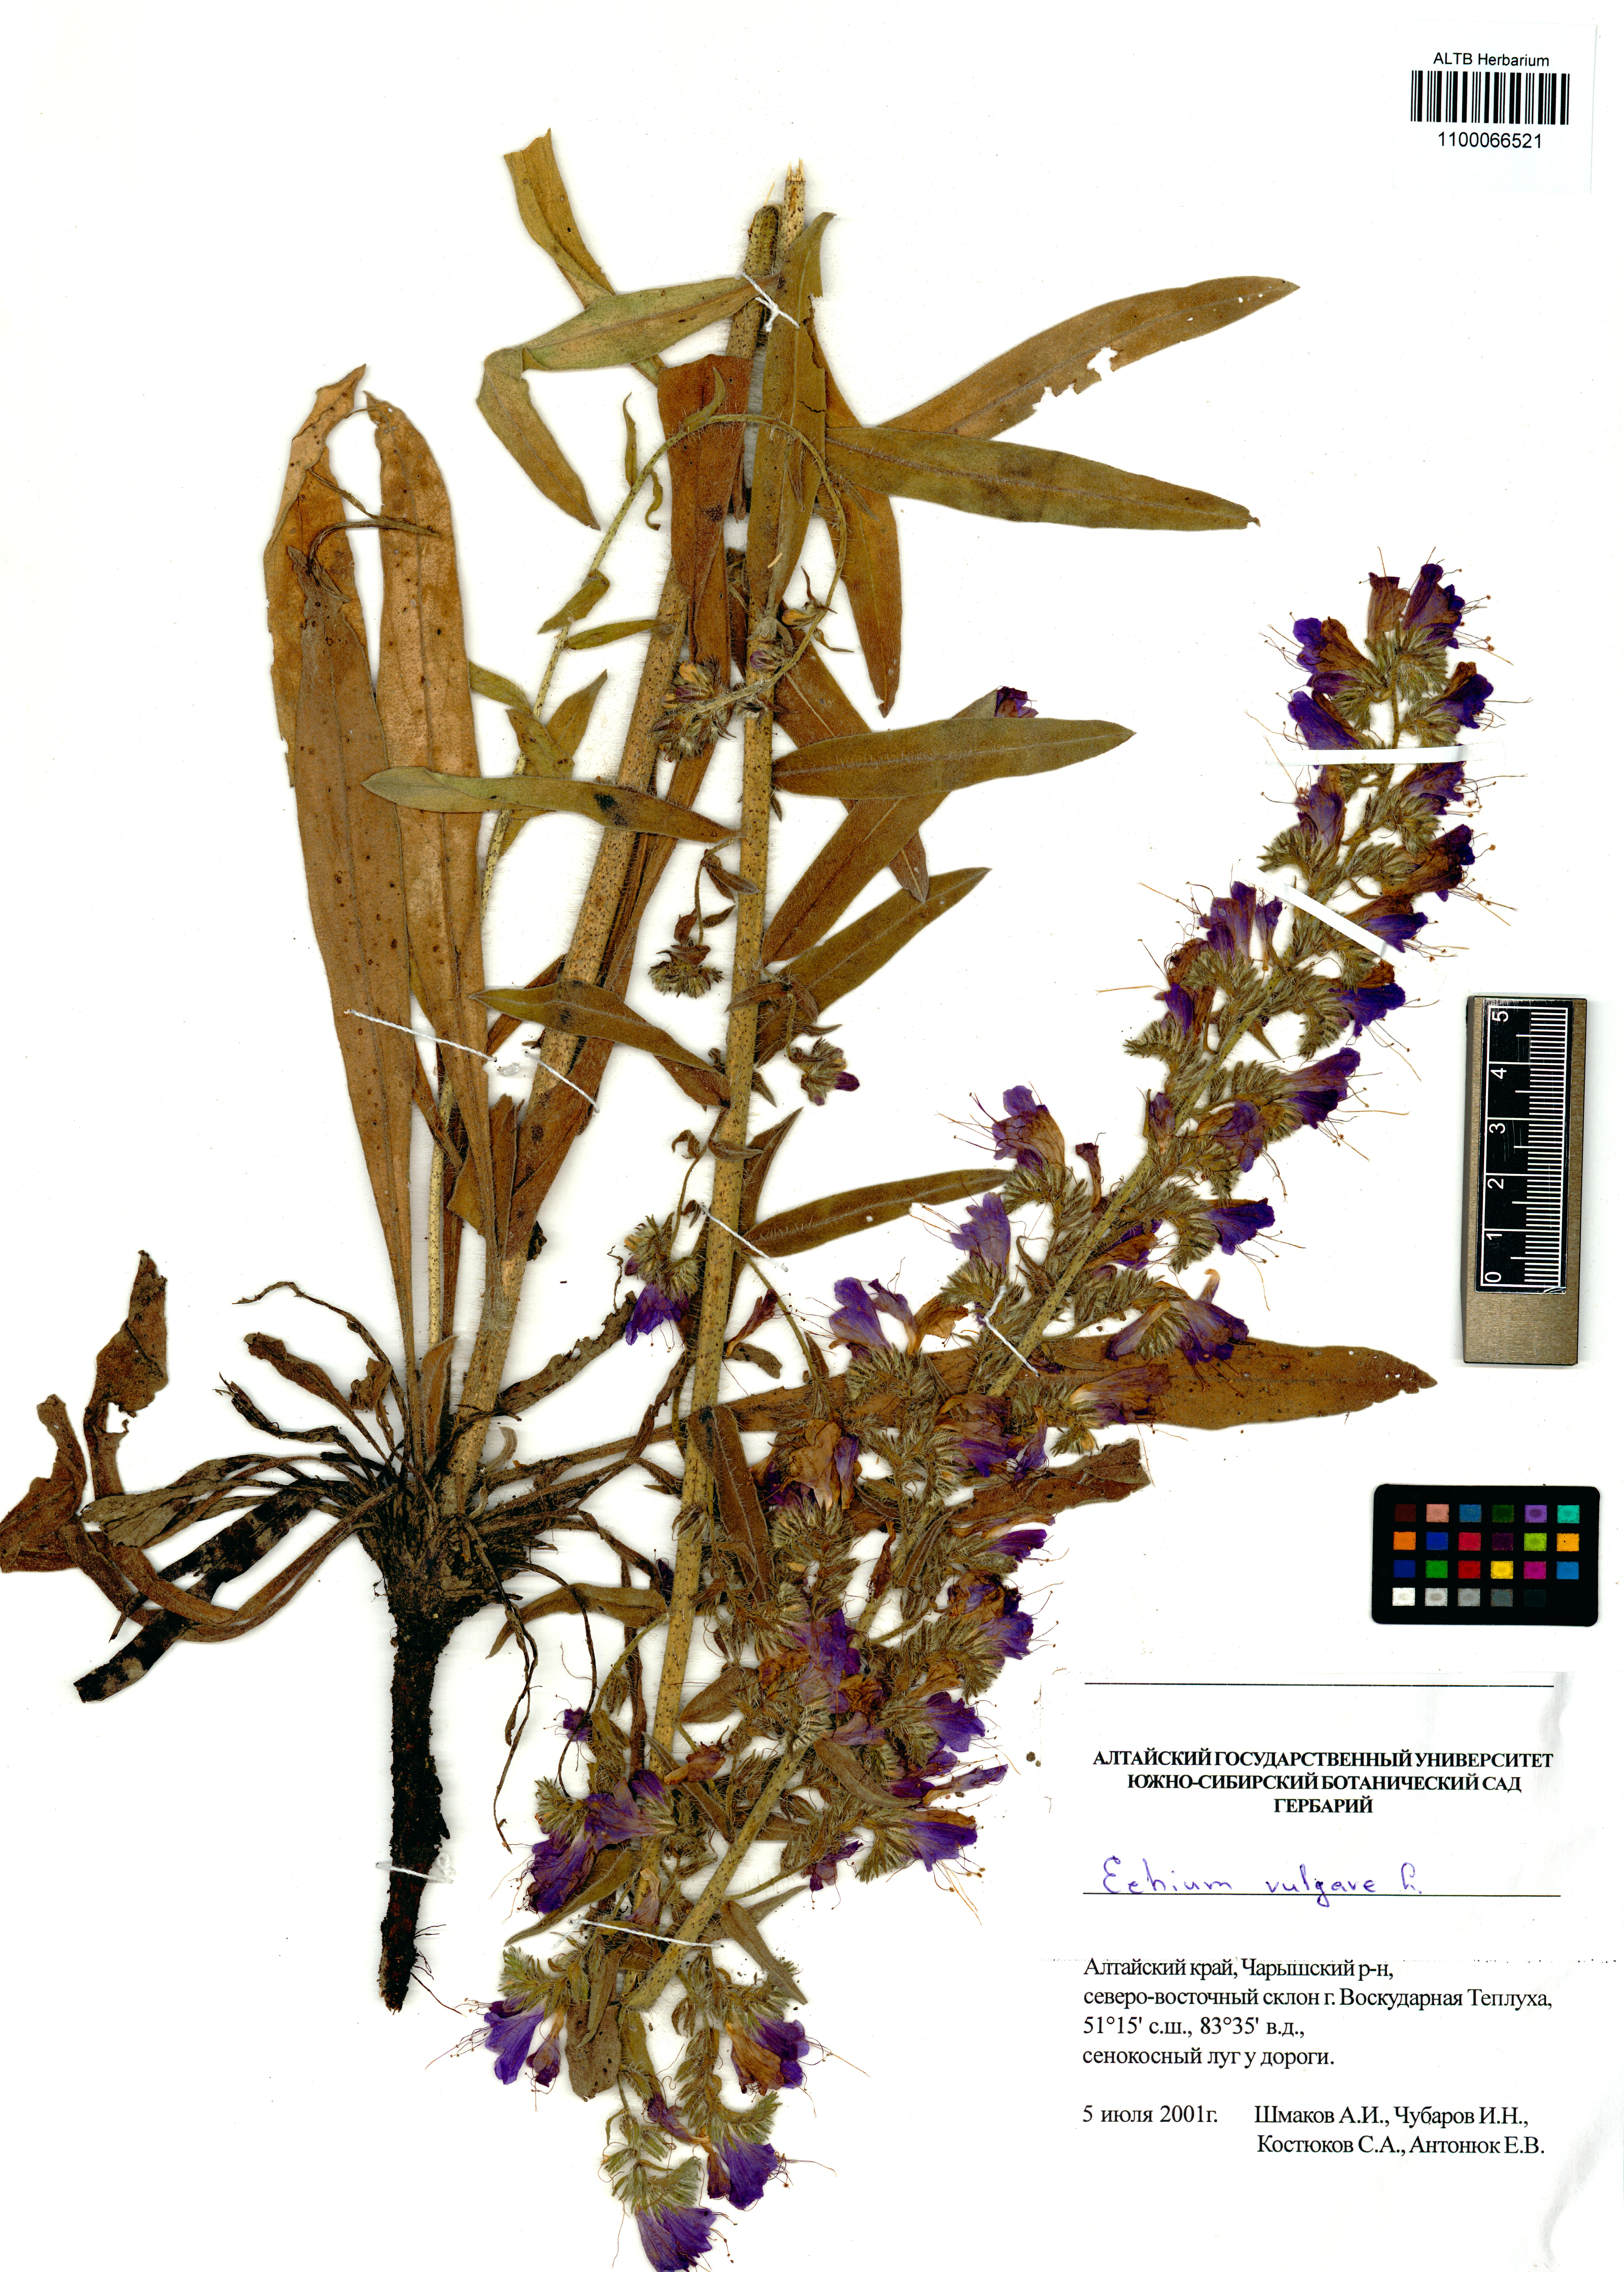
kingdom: Plantae
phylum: Tracheophyta
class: Magnoliopsida
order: Boraginales
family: Boraginaceae
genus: Echium
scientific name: Echium vulgare
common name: Common viper's bugloss
